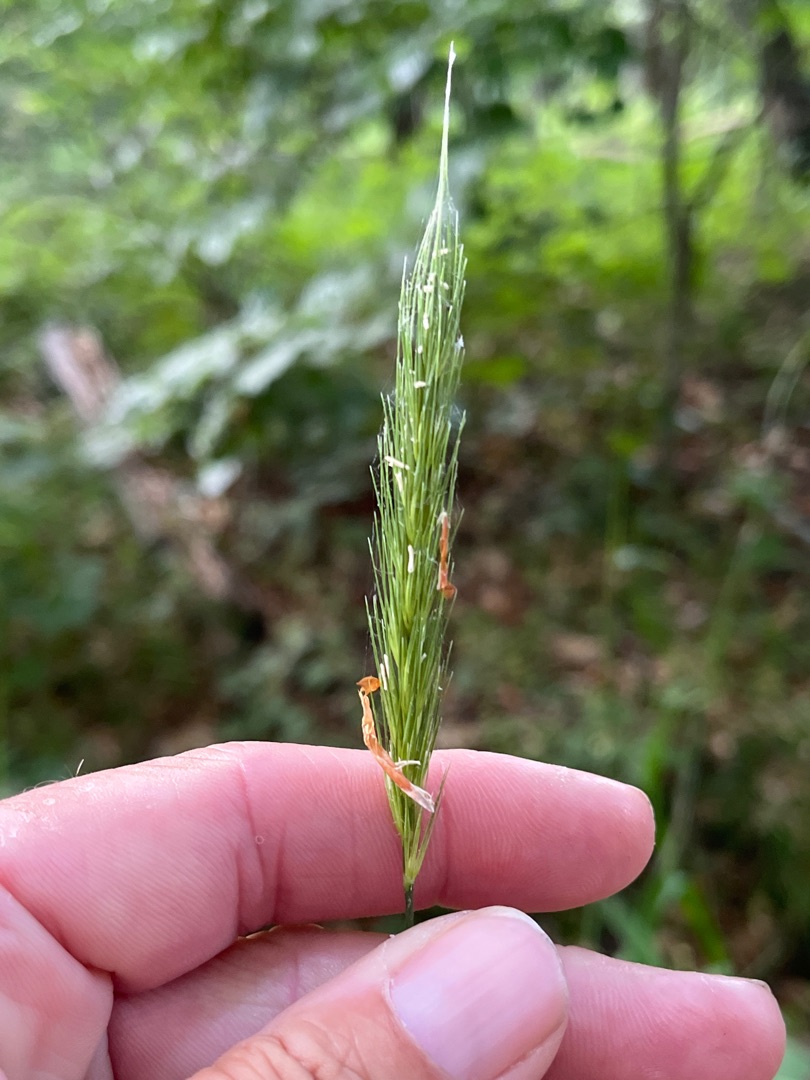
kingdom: Plantae
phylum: Tracheophyta
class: Liliopsida
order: Poales
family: Poaceae
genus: Hordelymus
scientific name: Hordelymus europaeus
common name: Skovbyg
